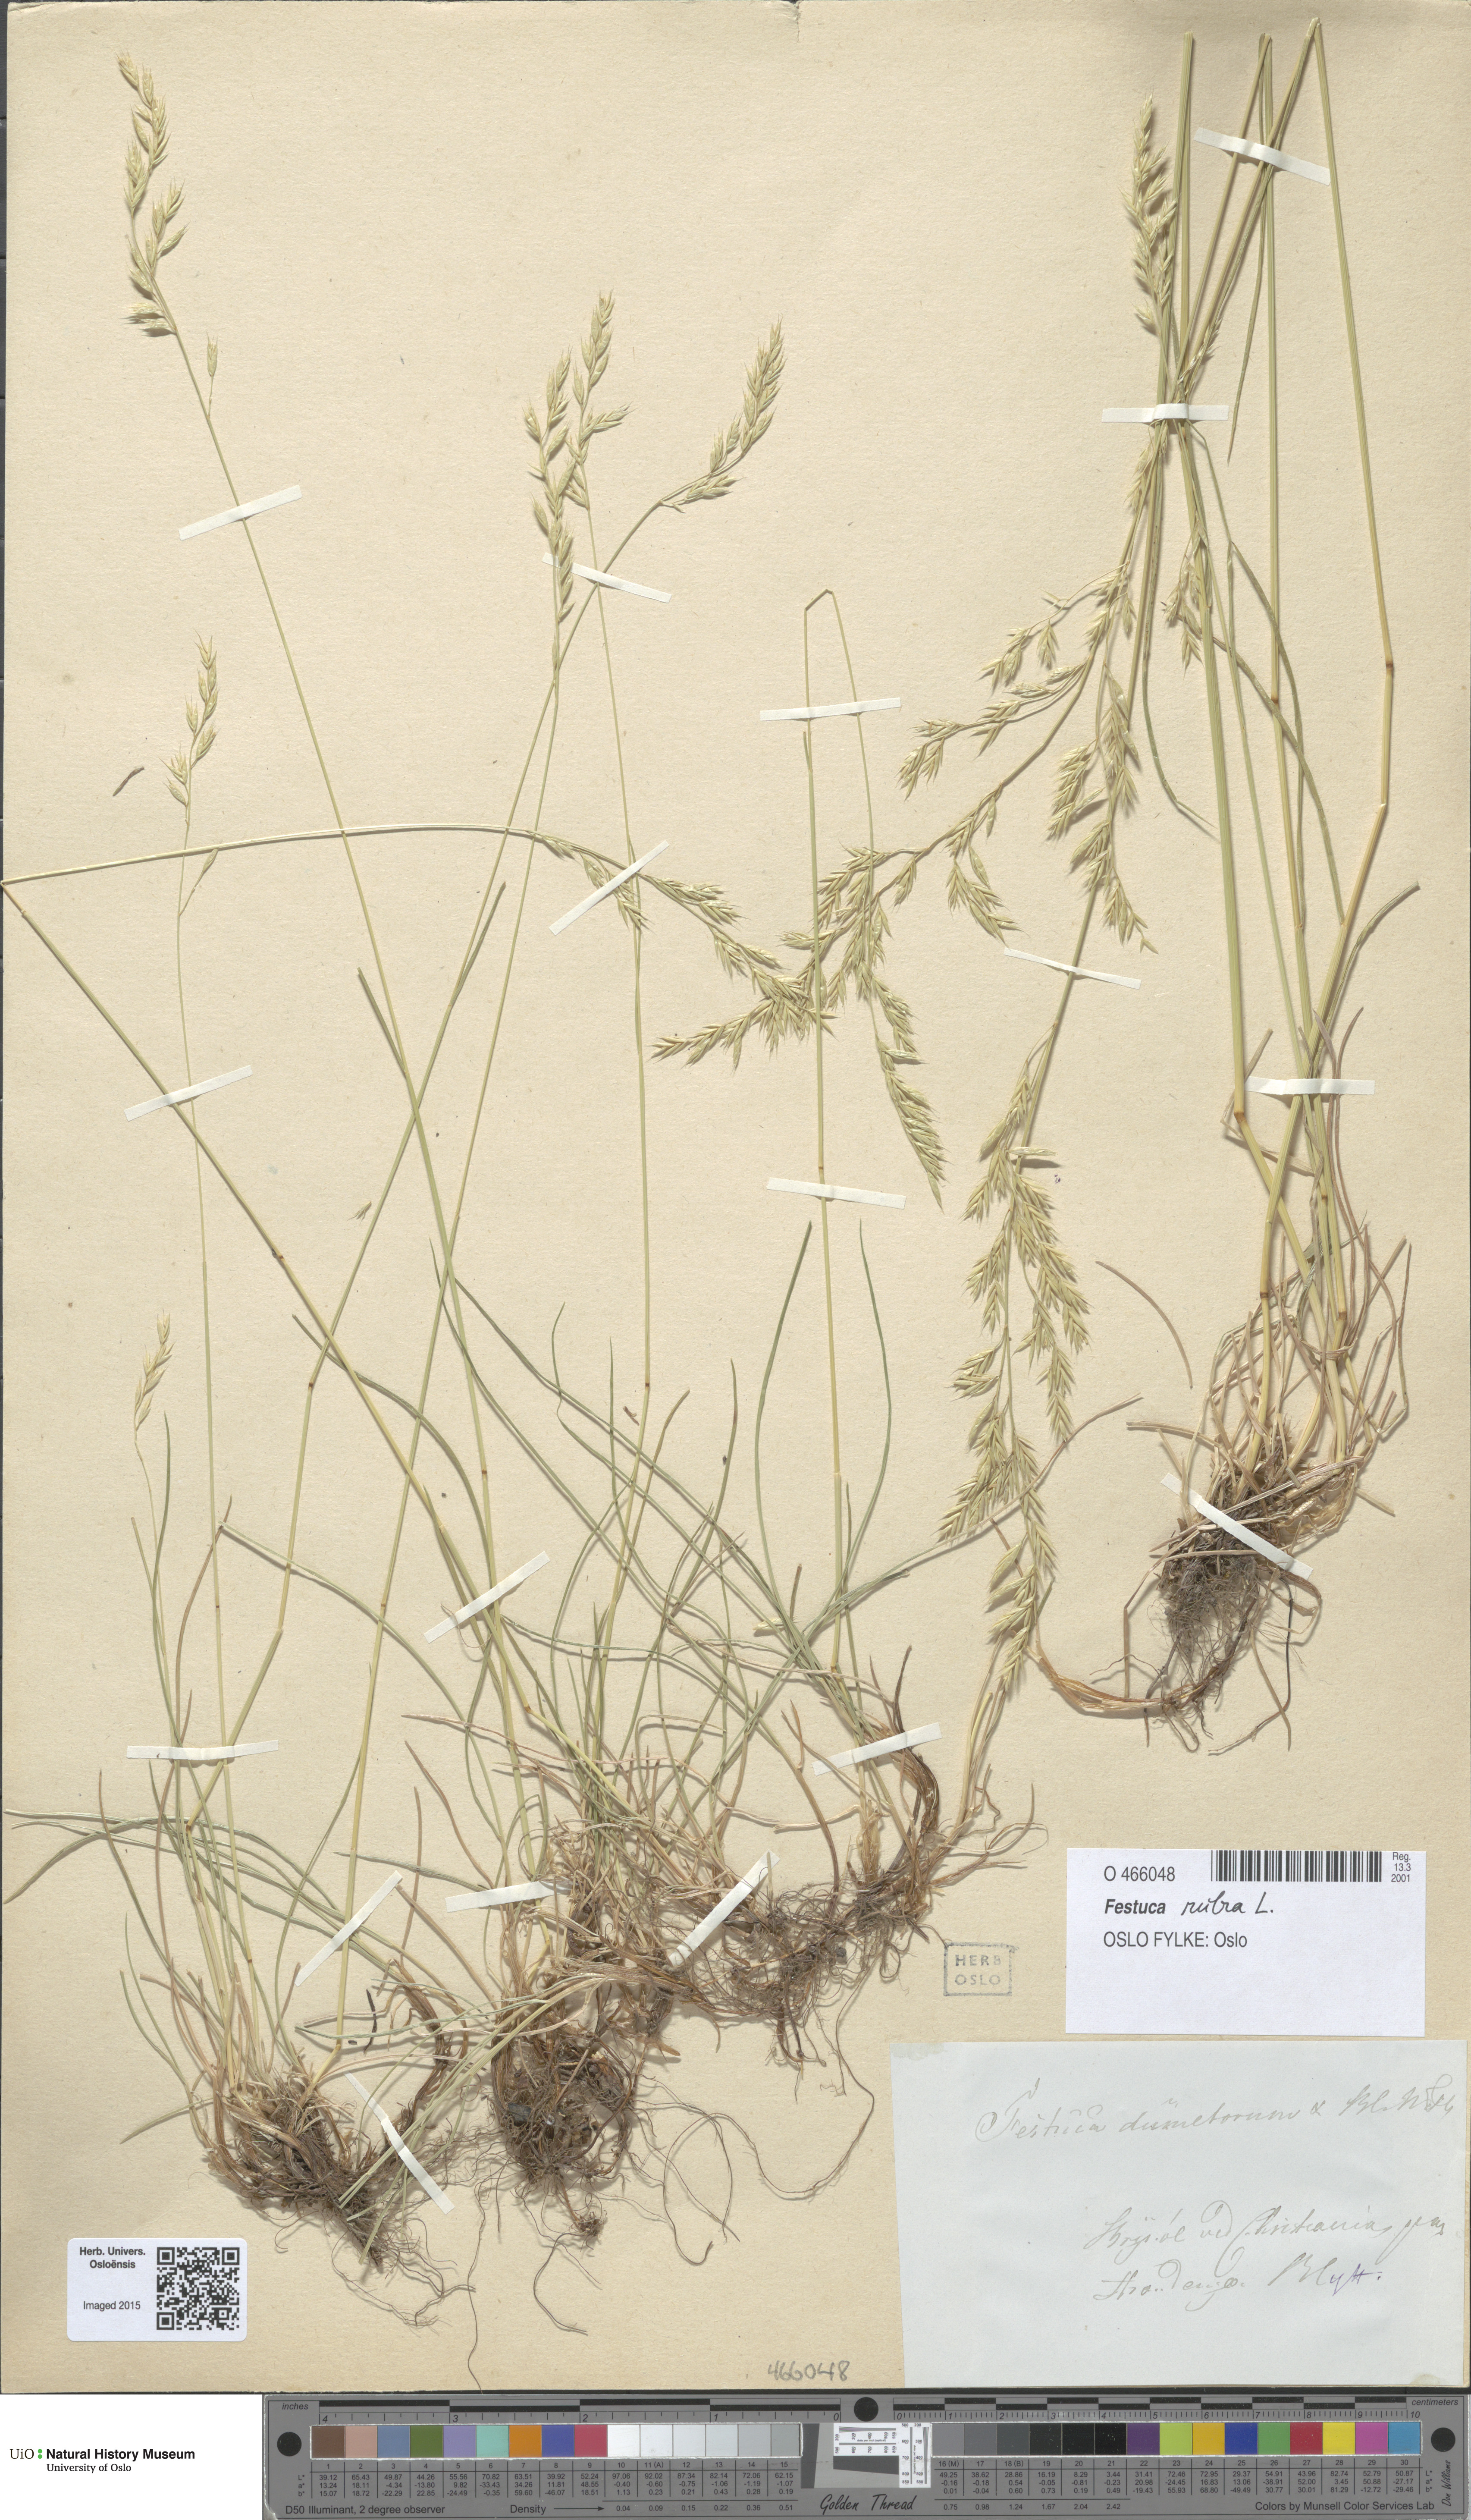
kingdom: Plantae
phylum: Tracheophyta
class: Liliopsida
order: Poales
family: Poaceae
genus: Festuca
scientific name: Festuca rubra
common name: Red fescue
